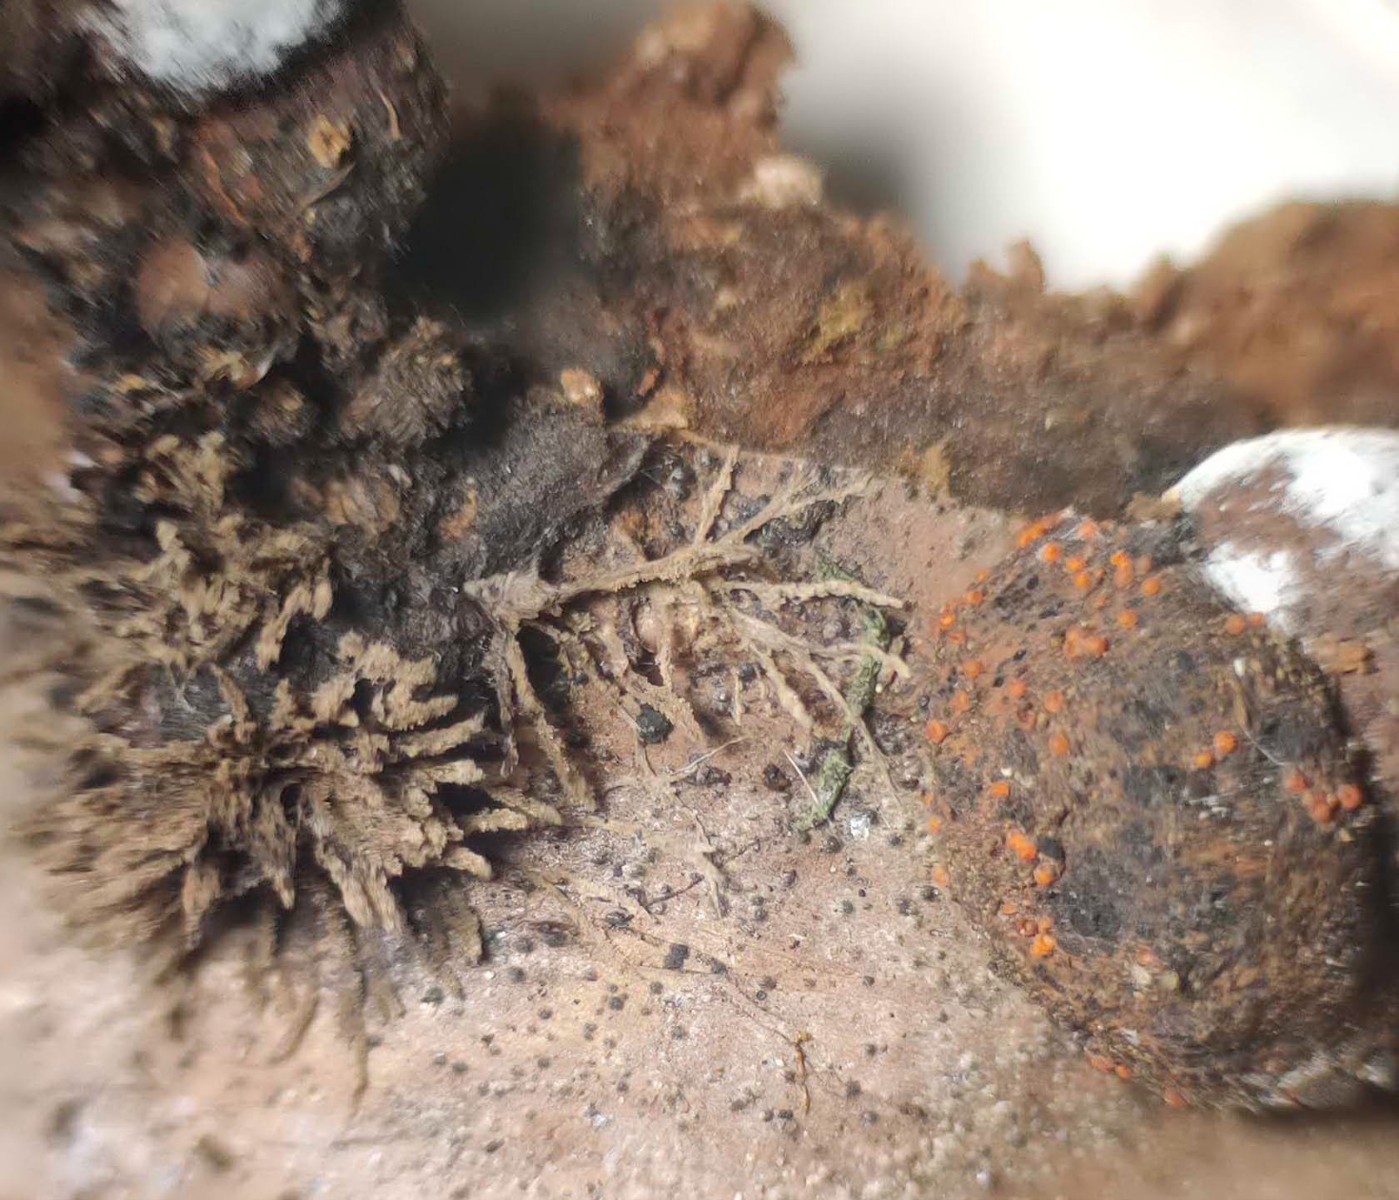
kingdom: Fungi
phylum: Ascomycota
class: Sordariomycetes
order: Hypocreales
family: Nectriaceae
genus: Cosmospora
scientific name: Cosmospora arxii
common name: kuljordbær-cinnobersvamp
